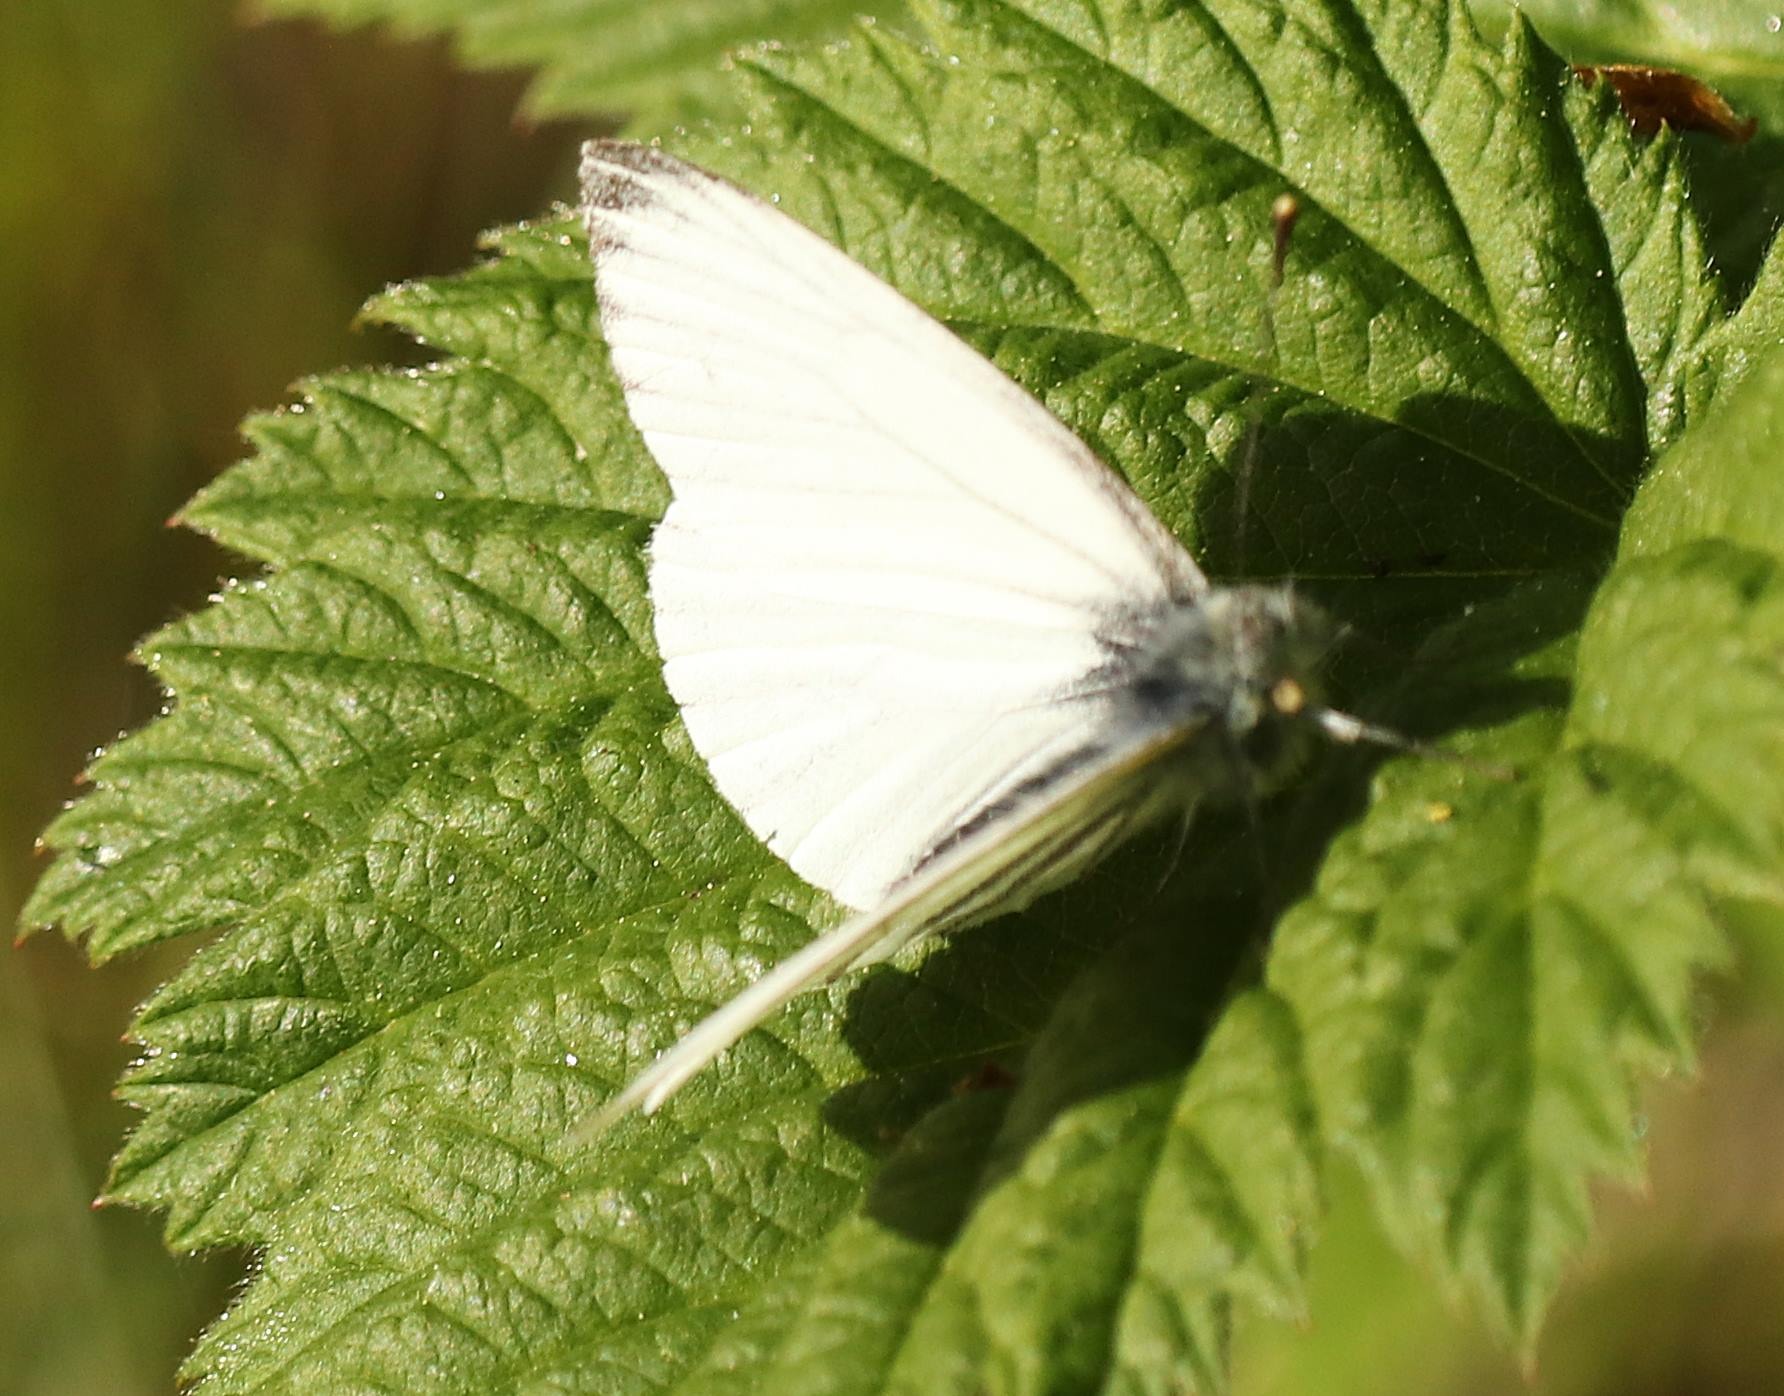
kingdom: Animalia
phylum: Arthropoda
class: Insecta
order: Lepidoptera
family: Pieridae
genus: Pieris
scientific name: Pieris napi
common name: Grønåret kålsommerfugl
